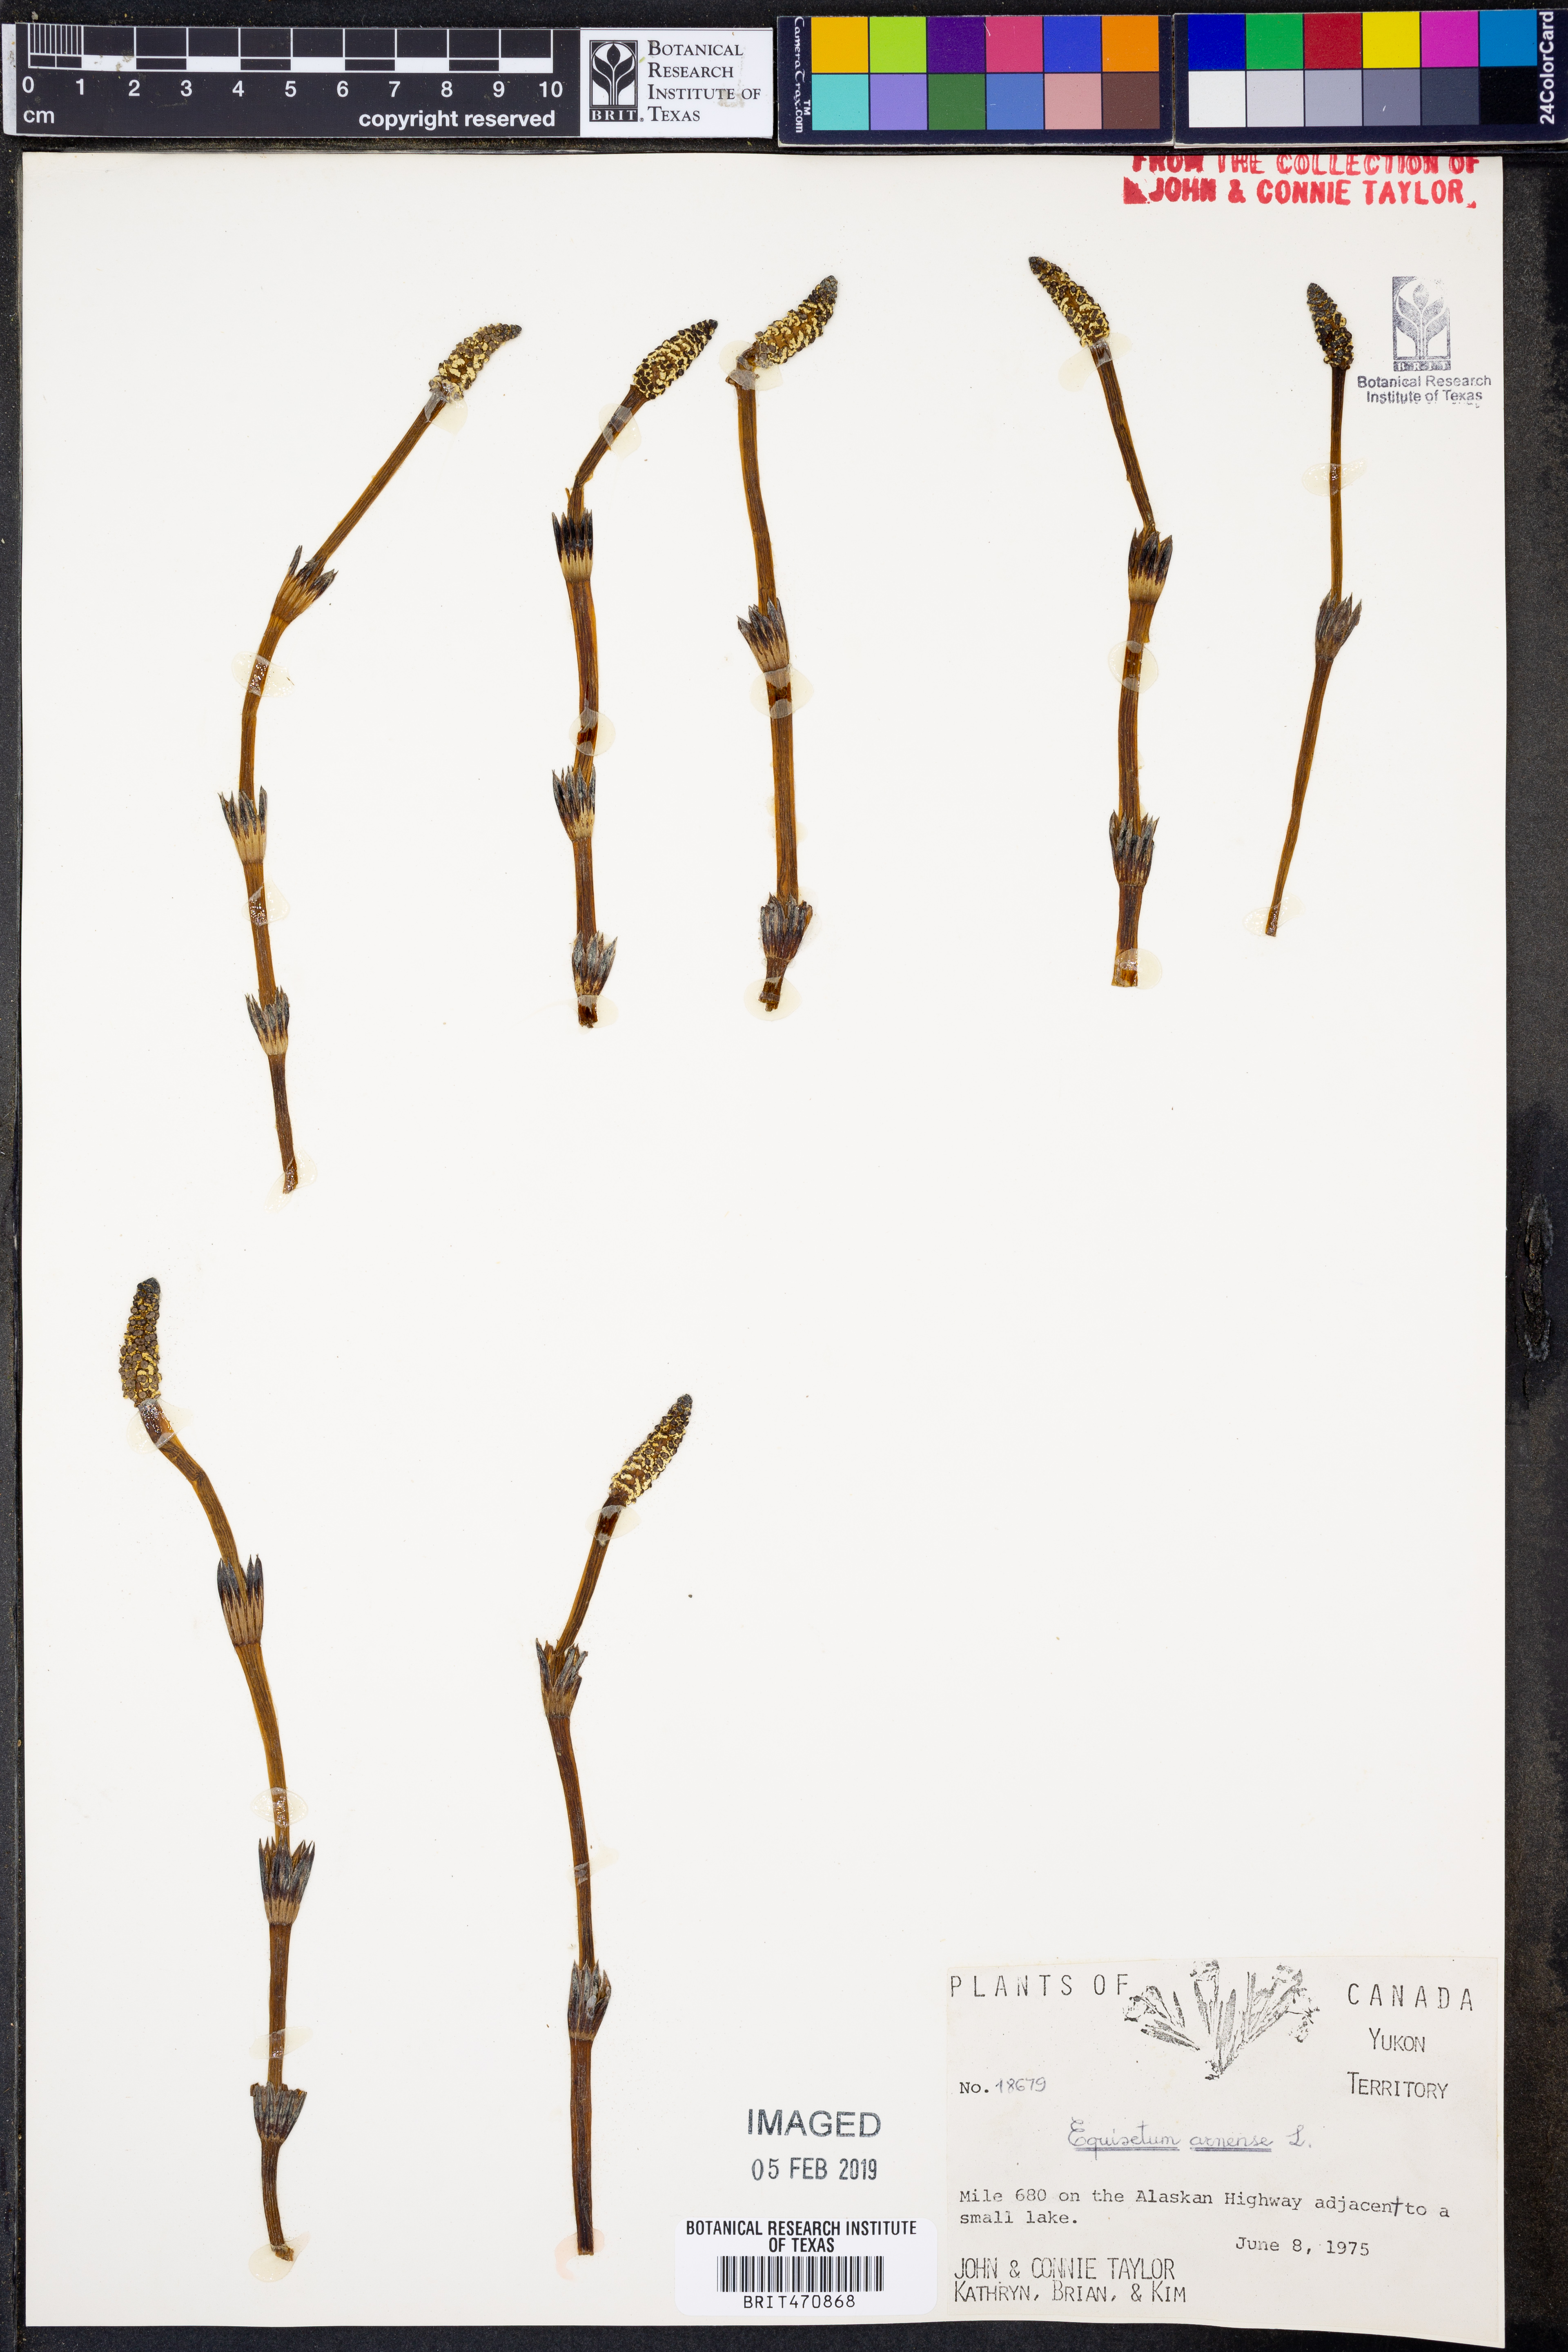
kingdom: Plantae
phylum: Tracheophyta
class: Polypodiopsida
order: Equisetales
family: Equisetaceae
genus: Equisetum
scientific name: Equisetum arvense
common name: Field horsetail
